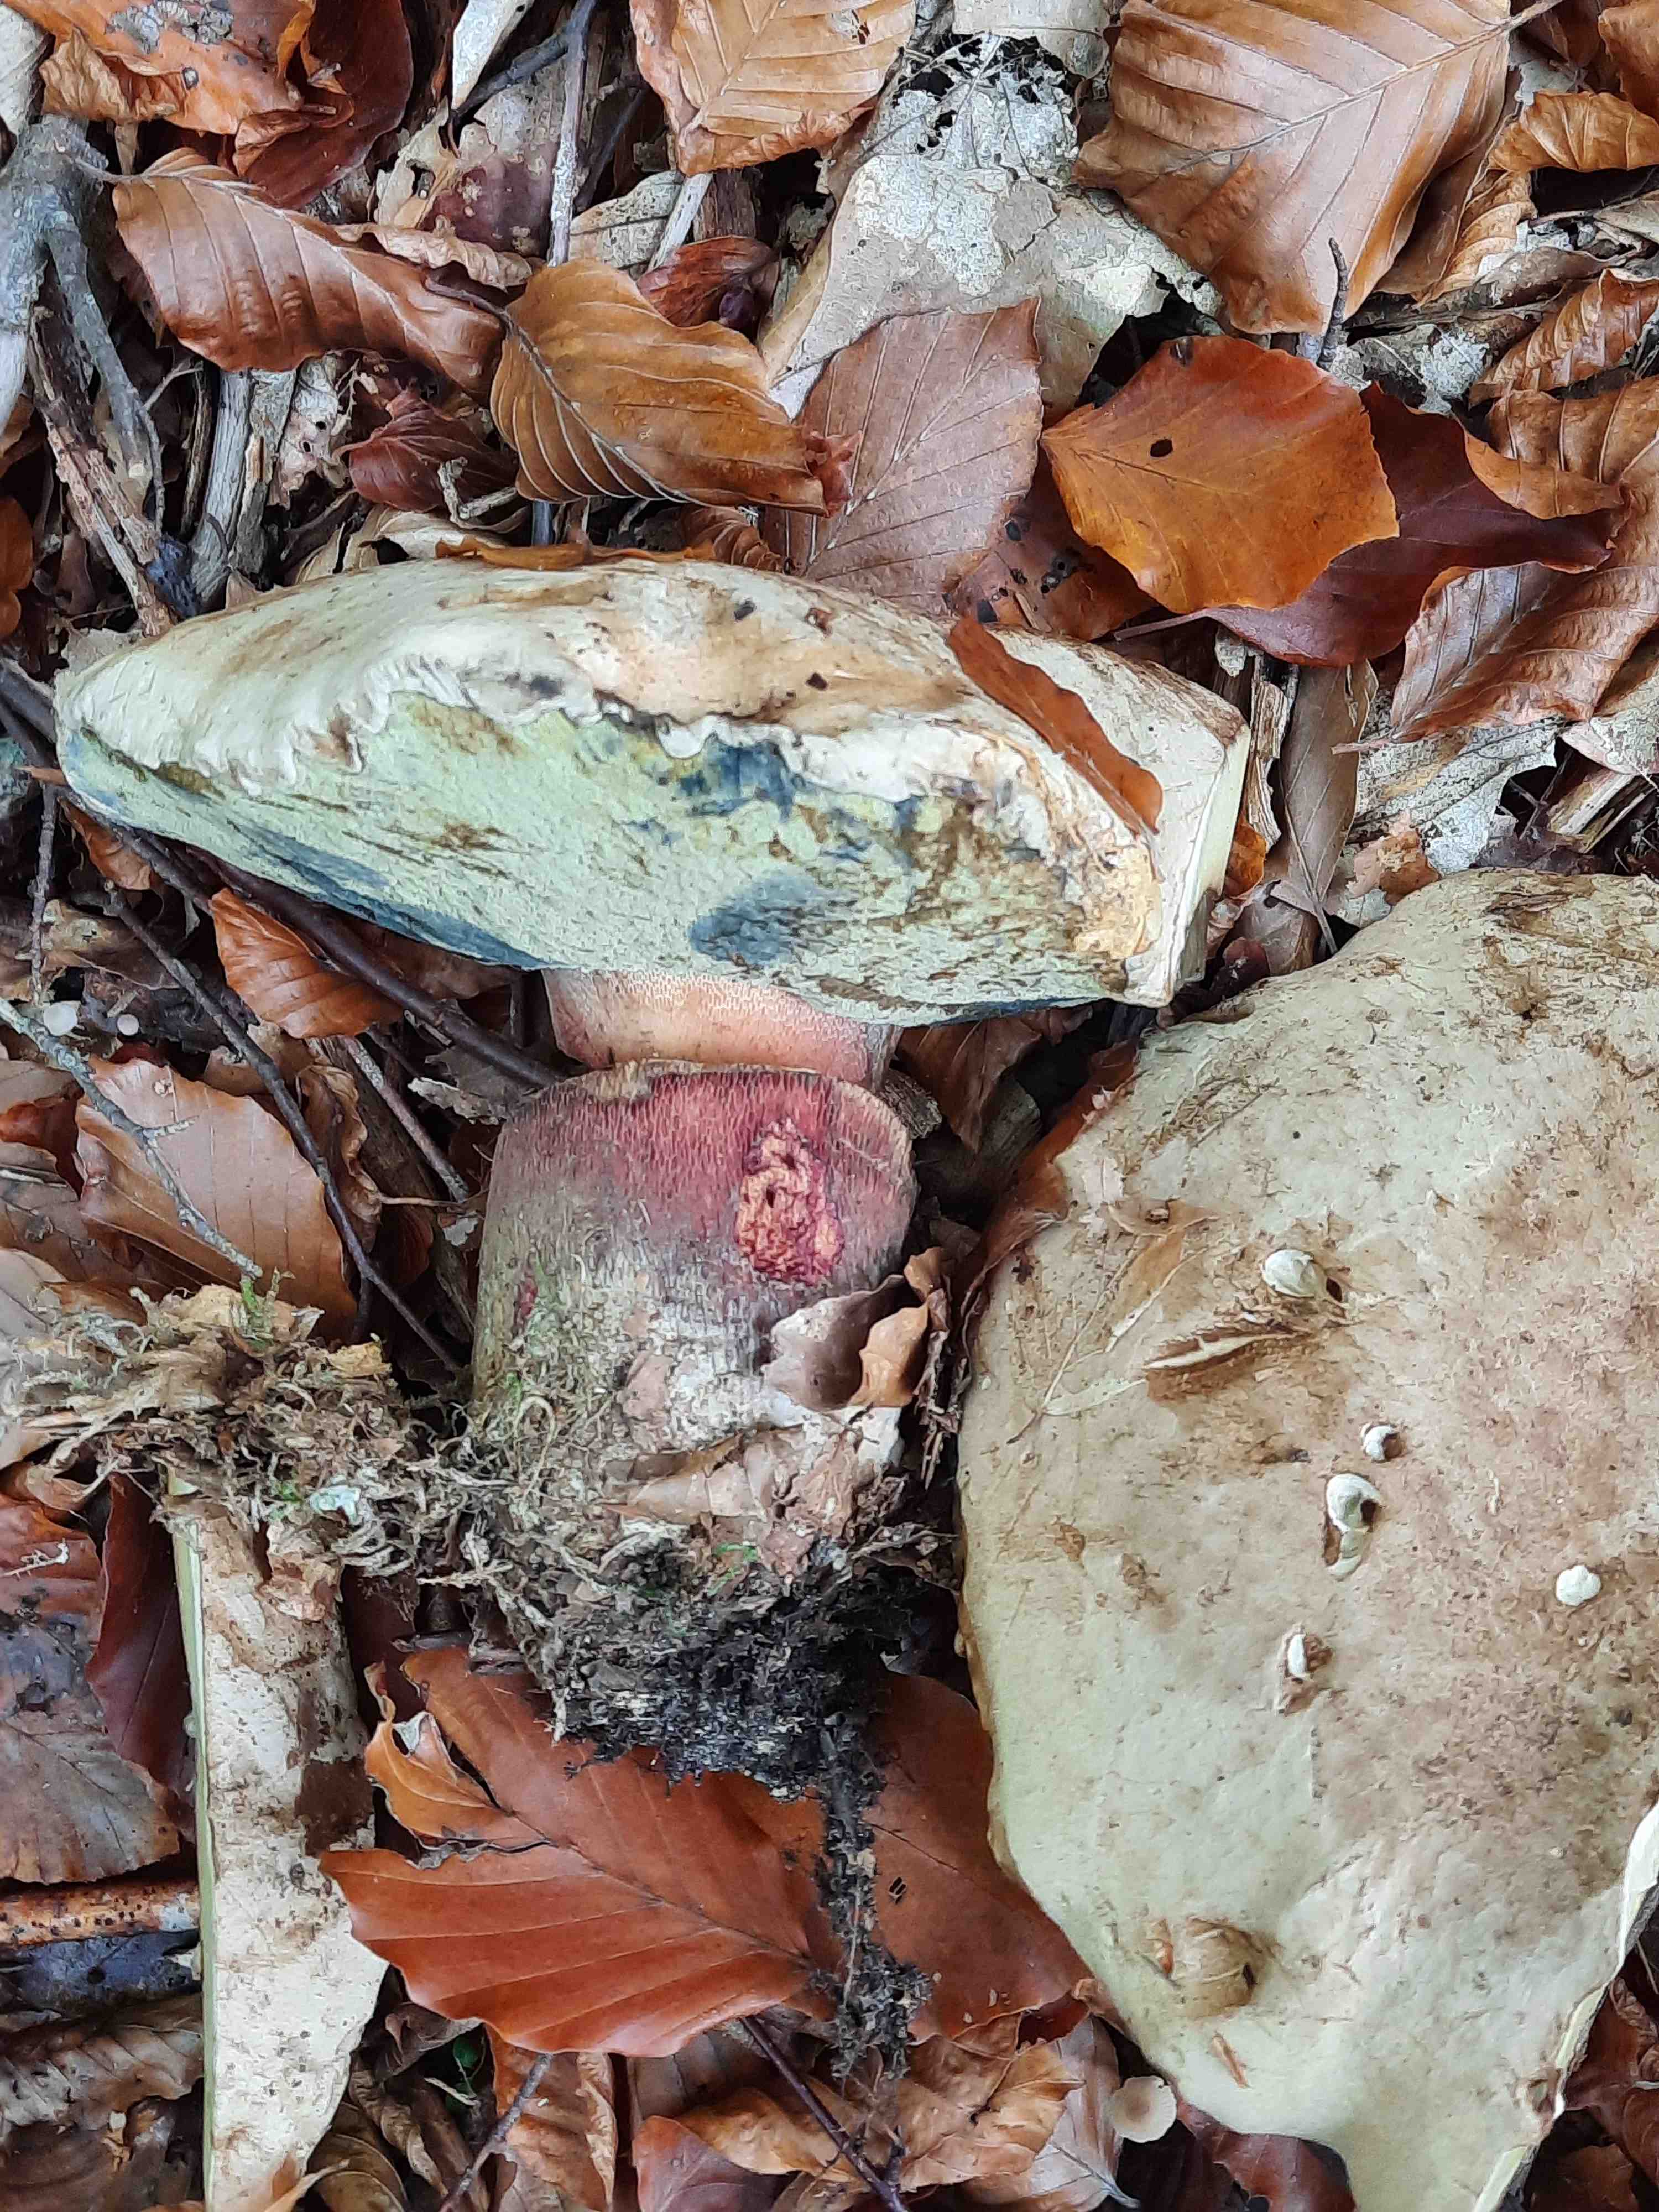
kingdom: Fungi
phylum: Basidiomycota
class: Agaricomycetes
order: Boletales
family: Boletaceae
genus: Caloboletus
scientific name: Caloboletus calopus
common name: skønfodet rørhat
